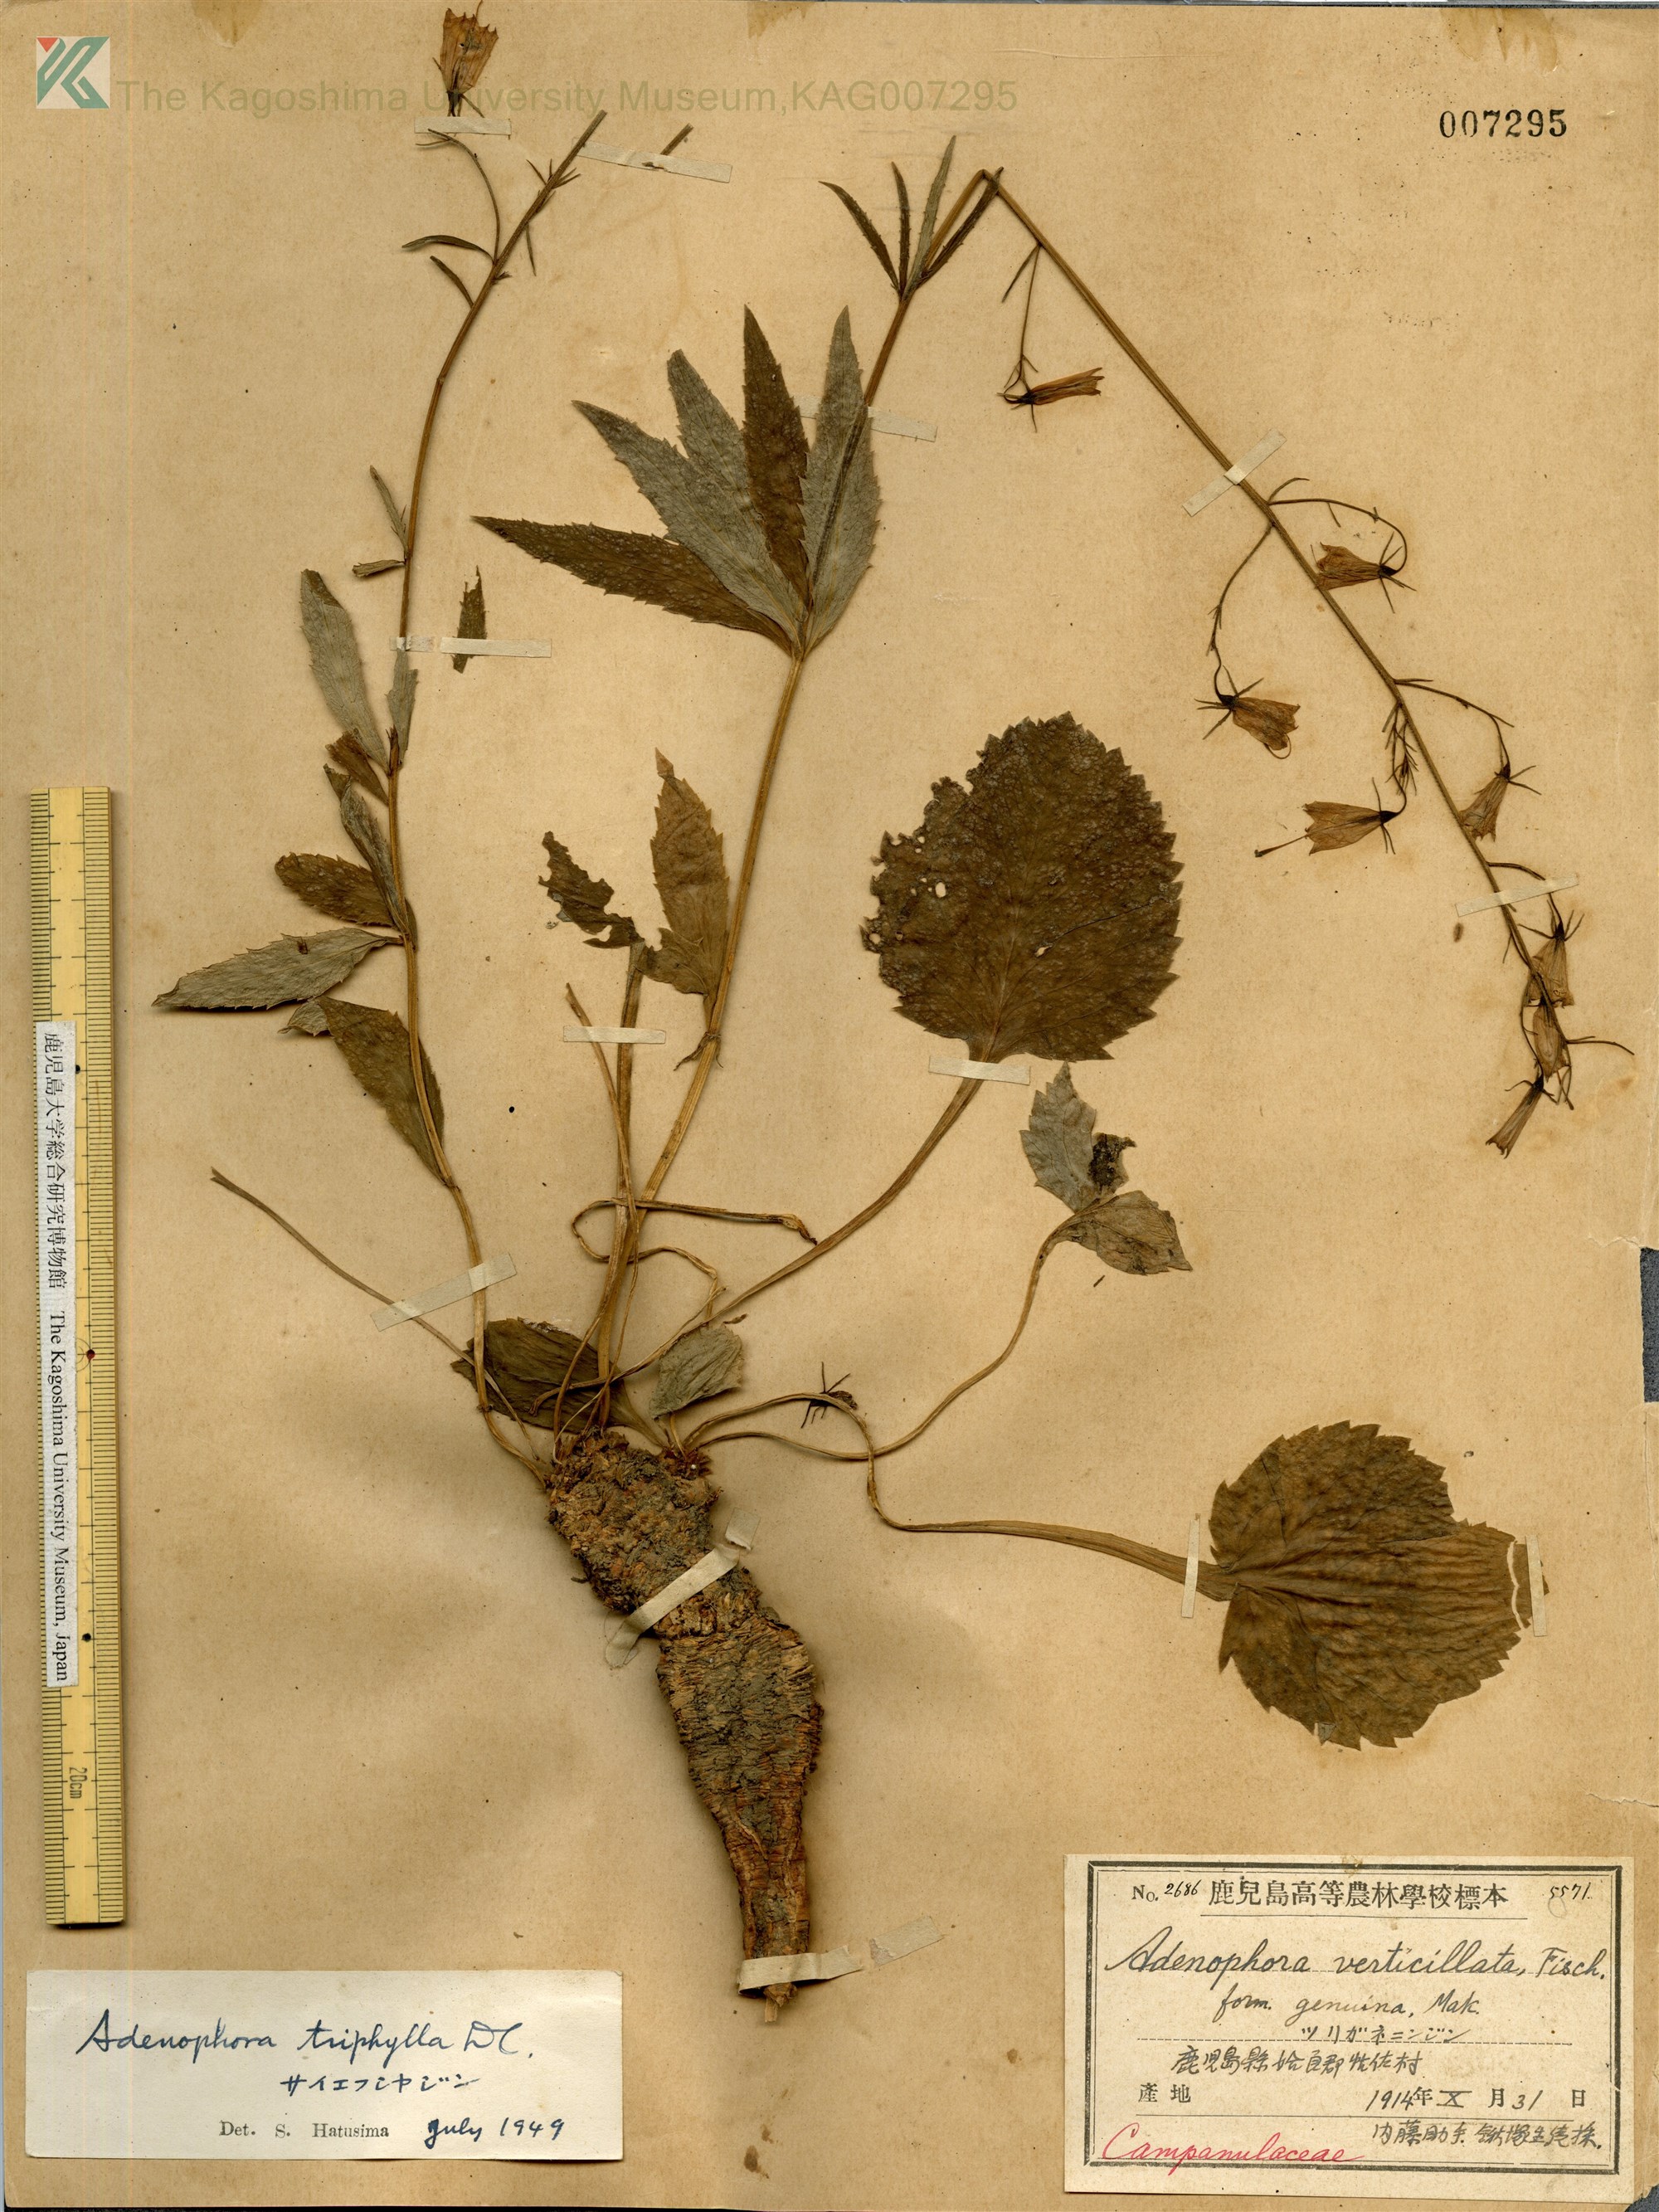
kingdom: Plantae
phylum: Tracheophyta
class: Magnoliopsida
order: Asterales
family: Campanulaceae
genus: Adenophora
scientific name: Adenophora triphylla
